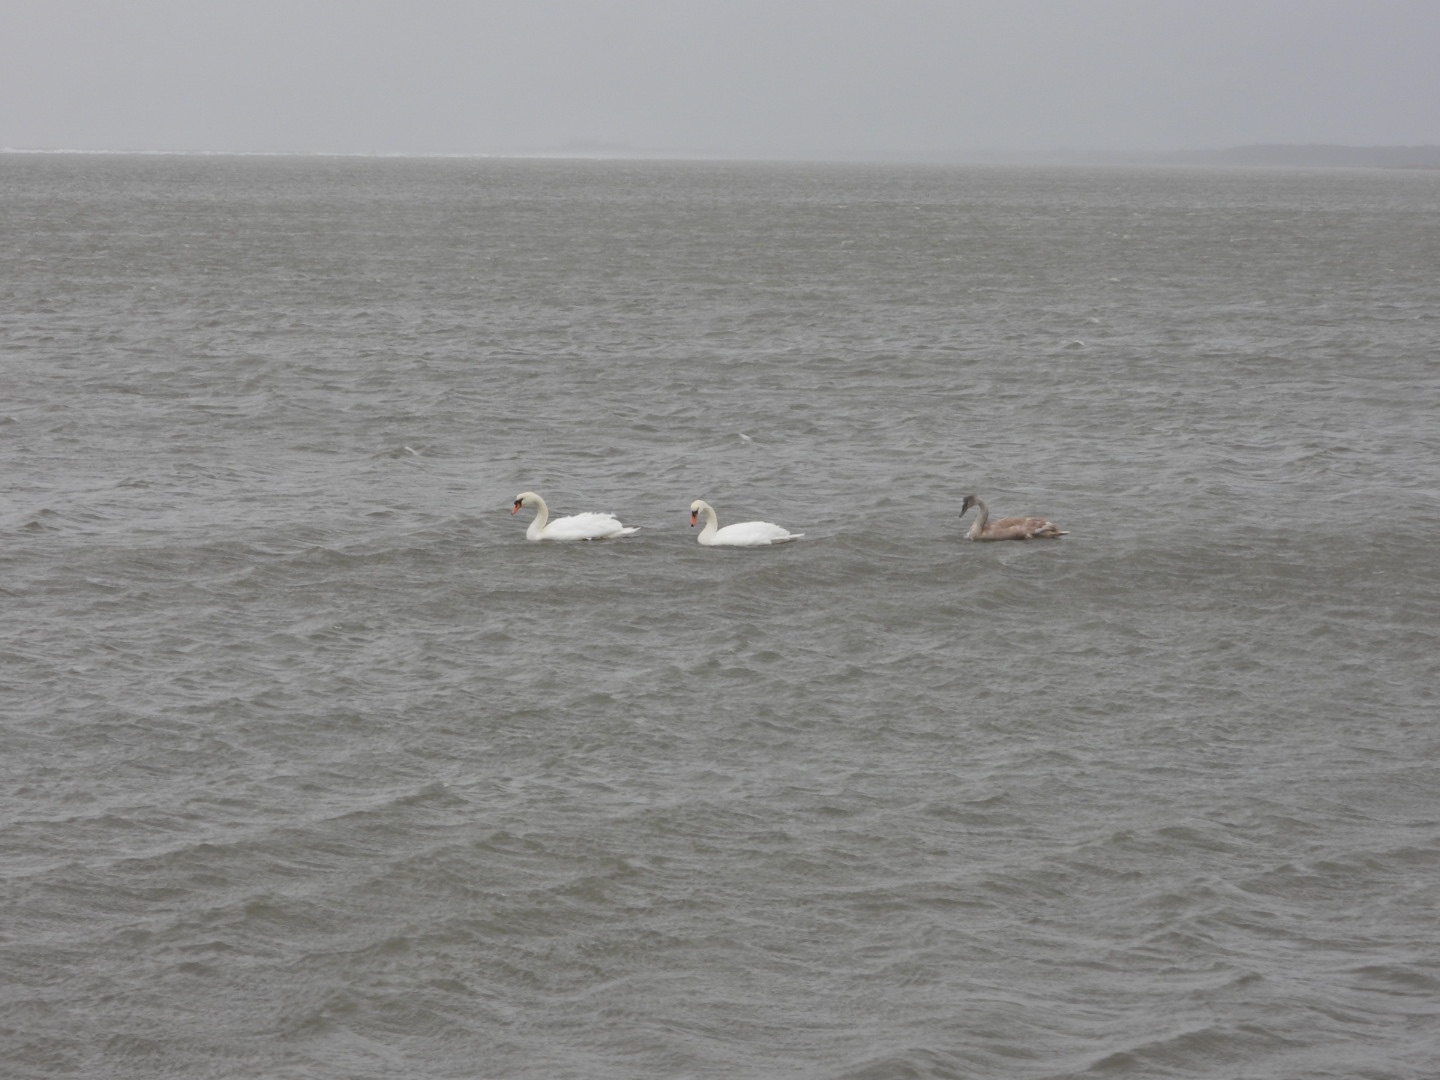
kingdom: Animalia
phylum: Chordata
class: Aves
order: Anseriformes
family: Anatidae
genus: Cygnus
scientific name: Cygnus olor
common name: Knopsvane
